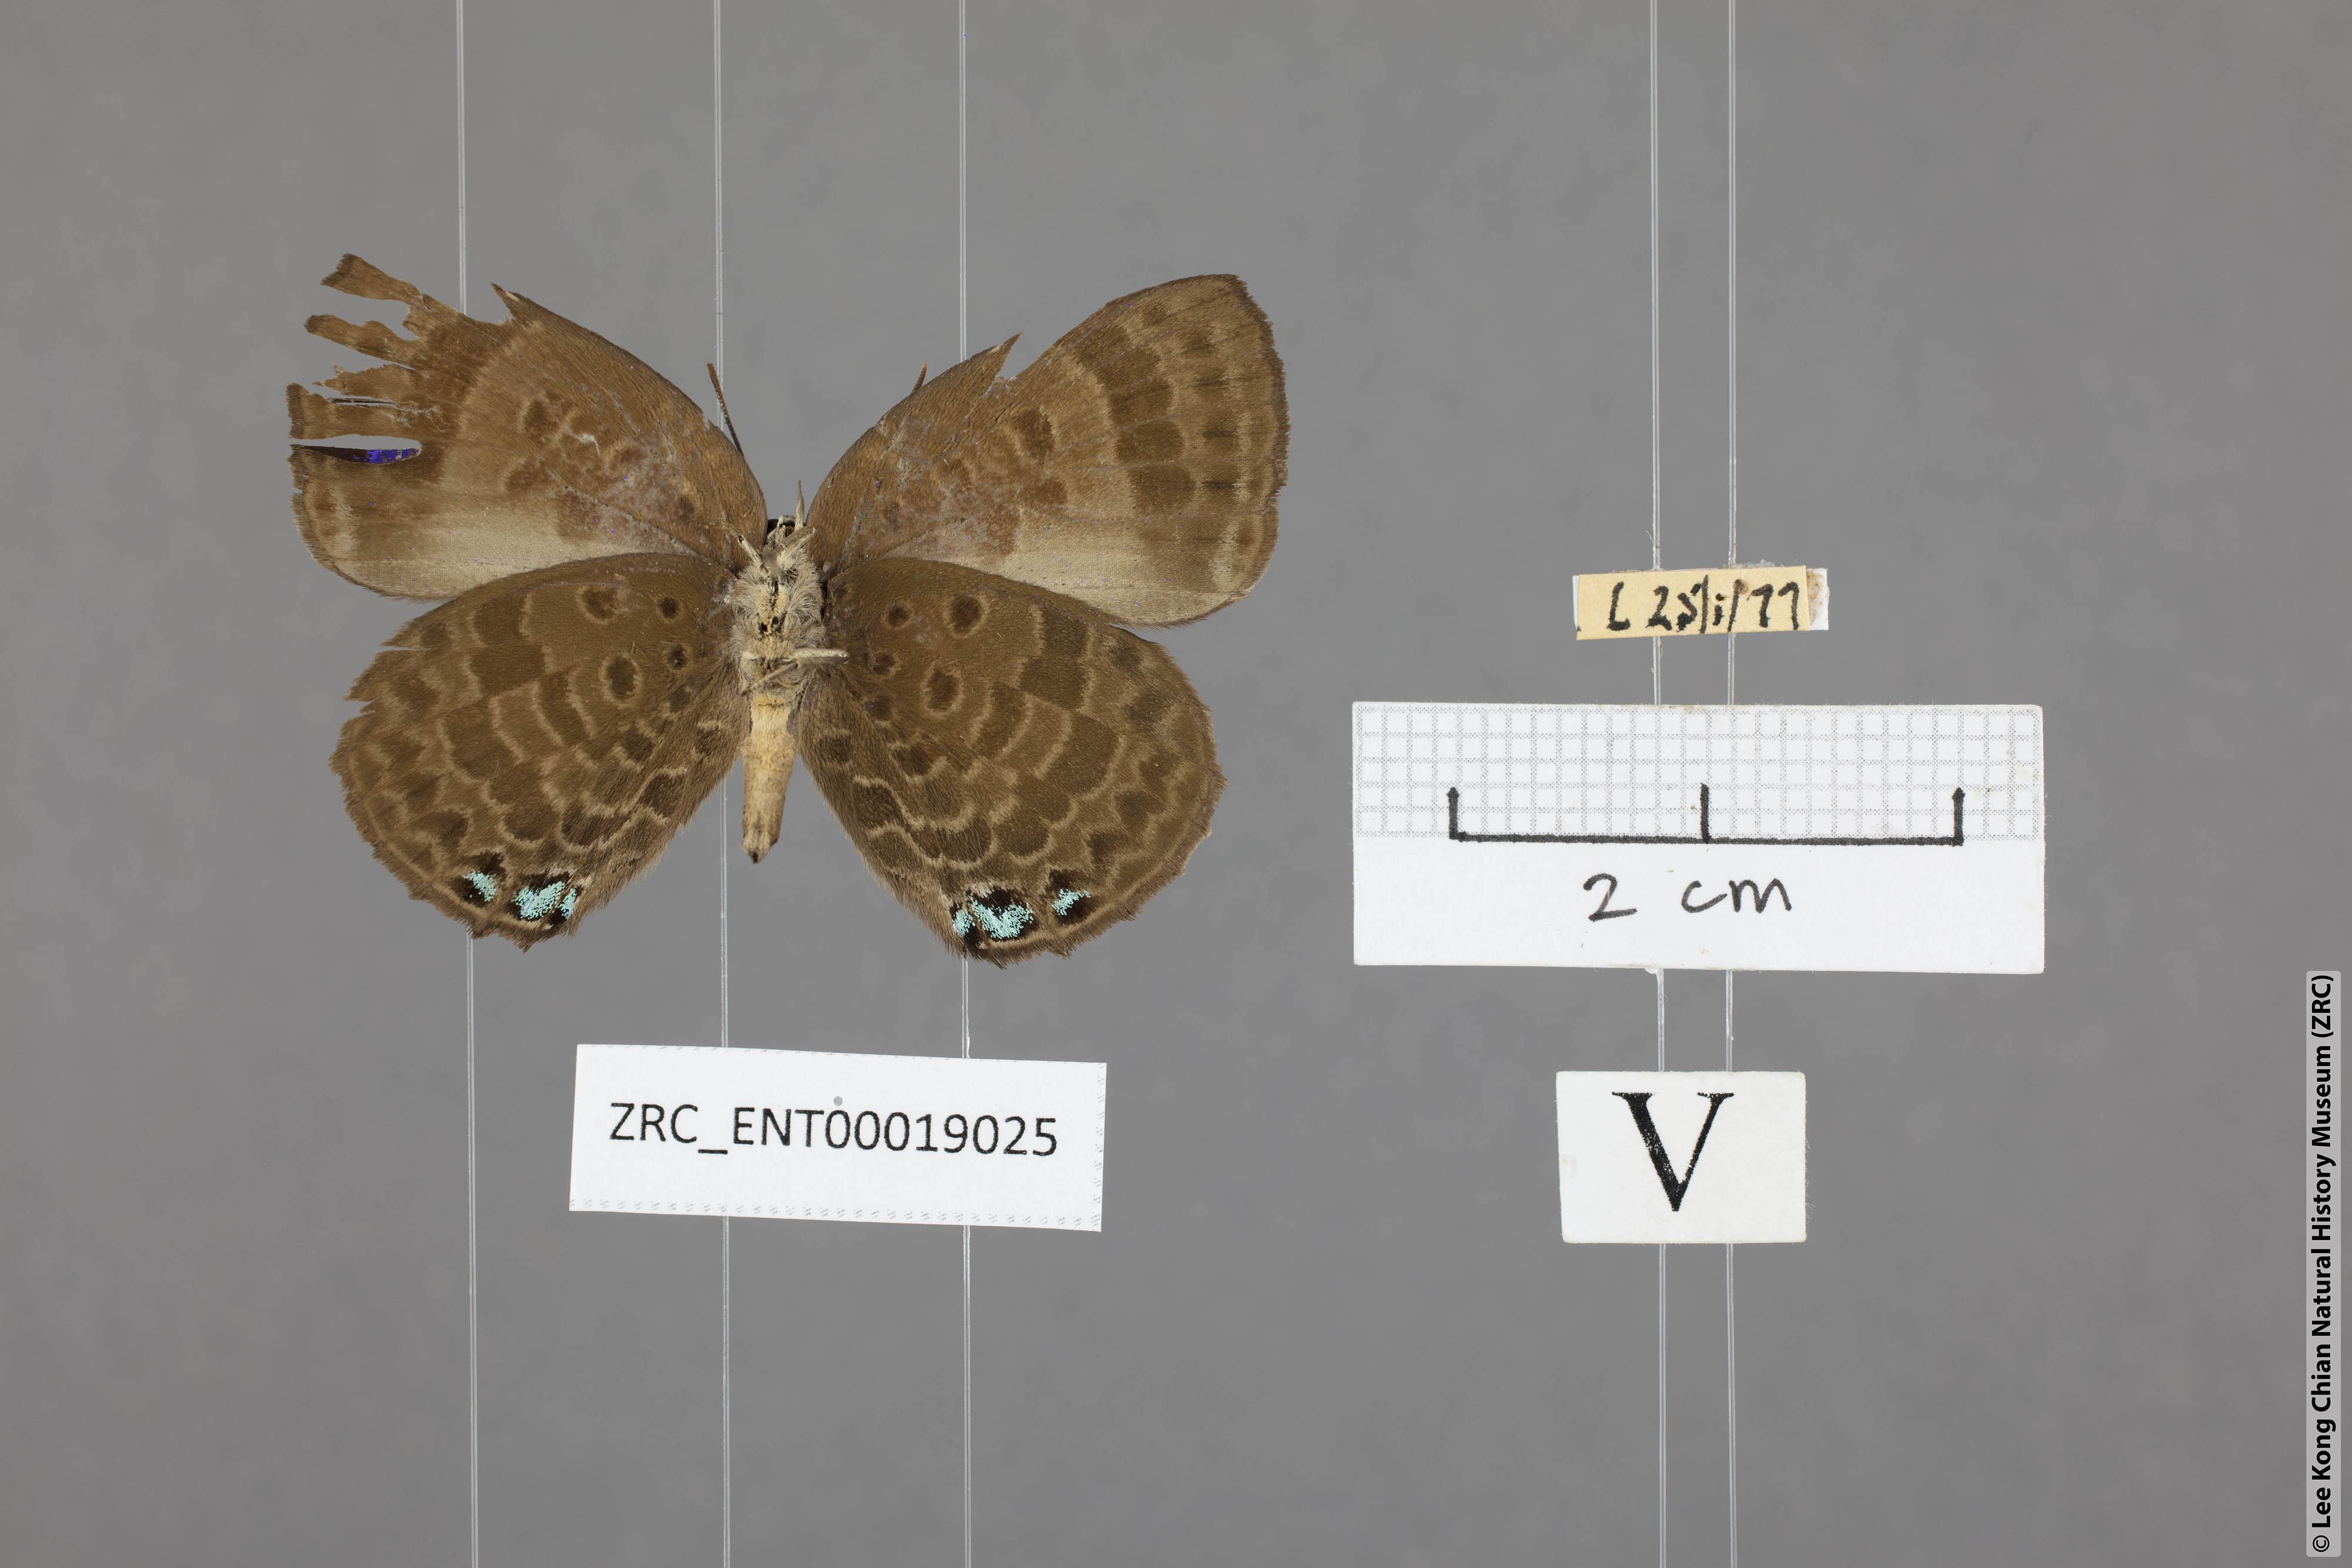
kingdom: Animalia
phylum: Arthropoda
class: Insecta
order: Lepidoptera
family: Lycaenidae
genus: Arhopala
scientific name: Arhopala agelastus
